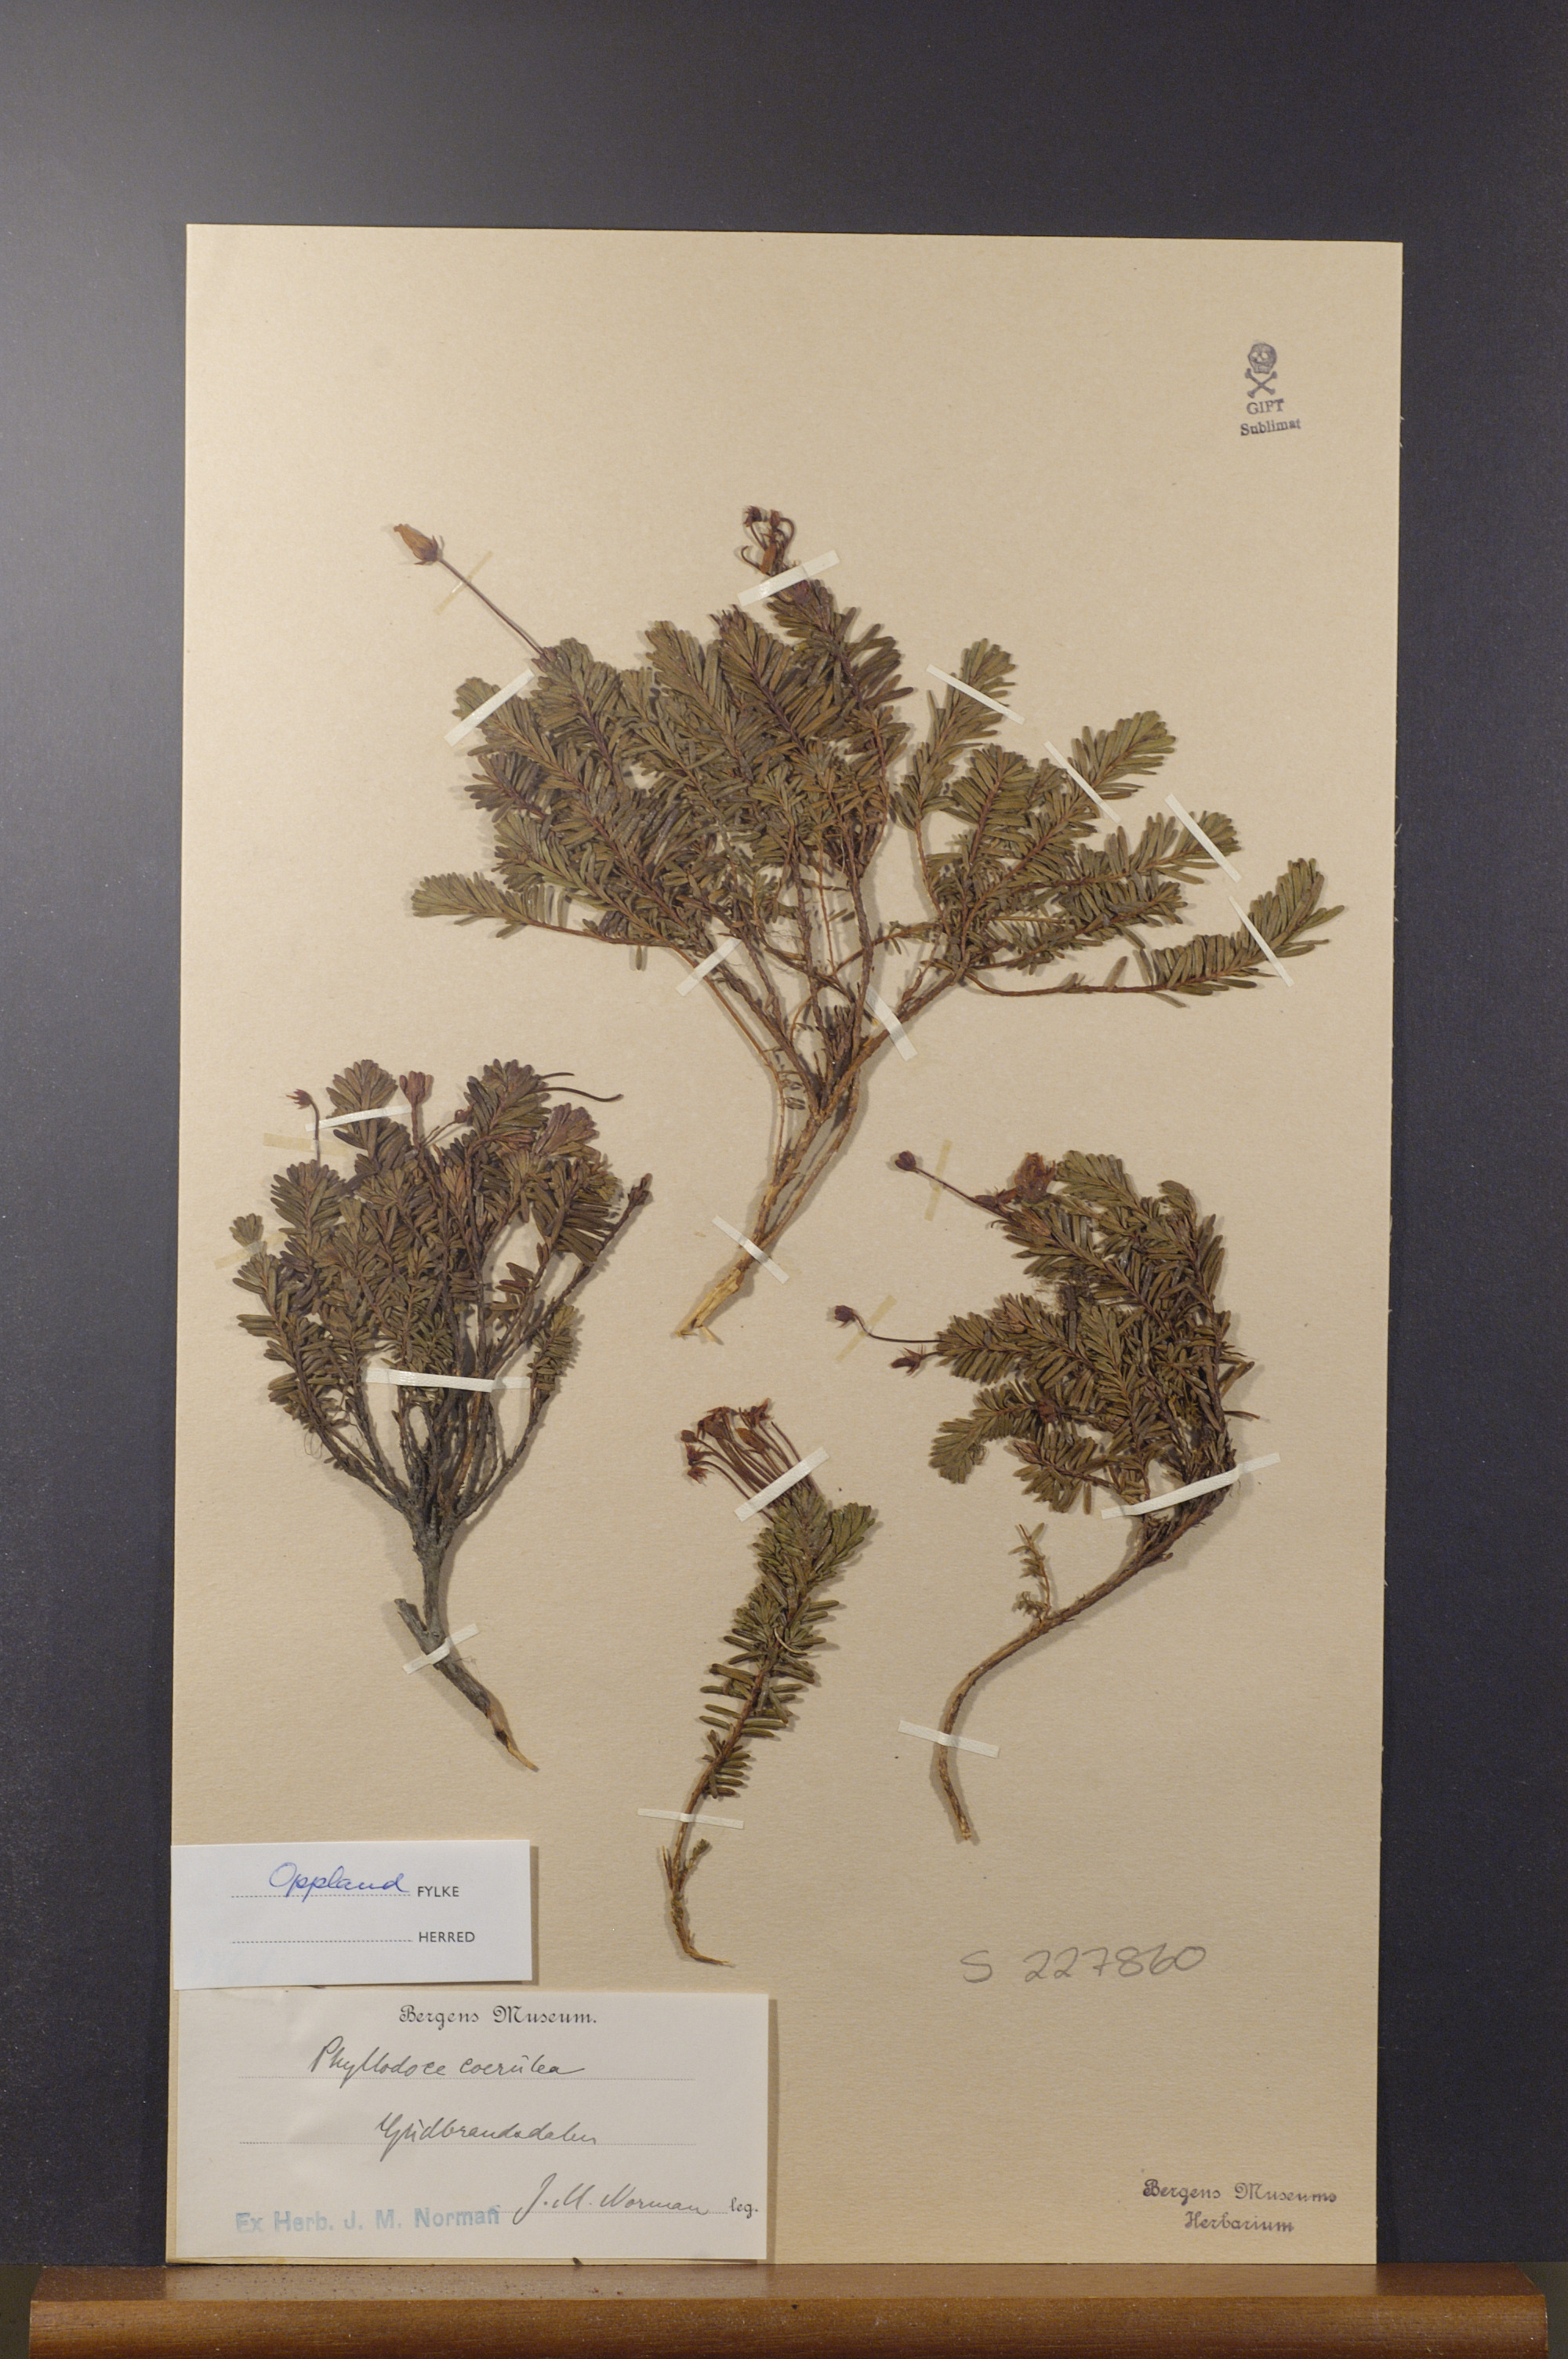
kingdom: Plantae
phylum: Tracheophyta
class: Magnoliopsida
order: Ericales
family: Ericaceae
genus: Phyllodoce
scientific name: Phyllodoce caerulea
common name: Blue heath
